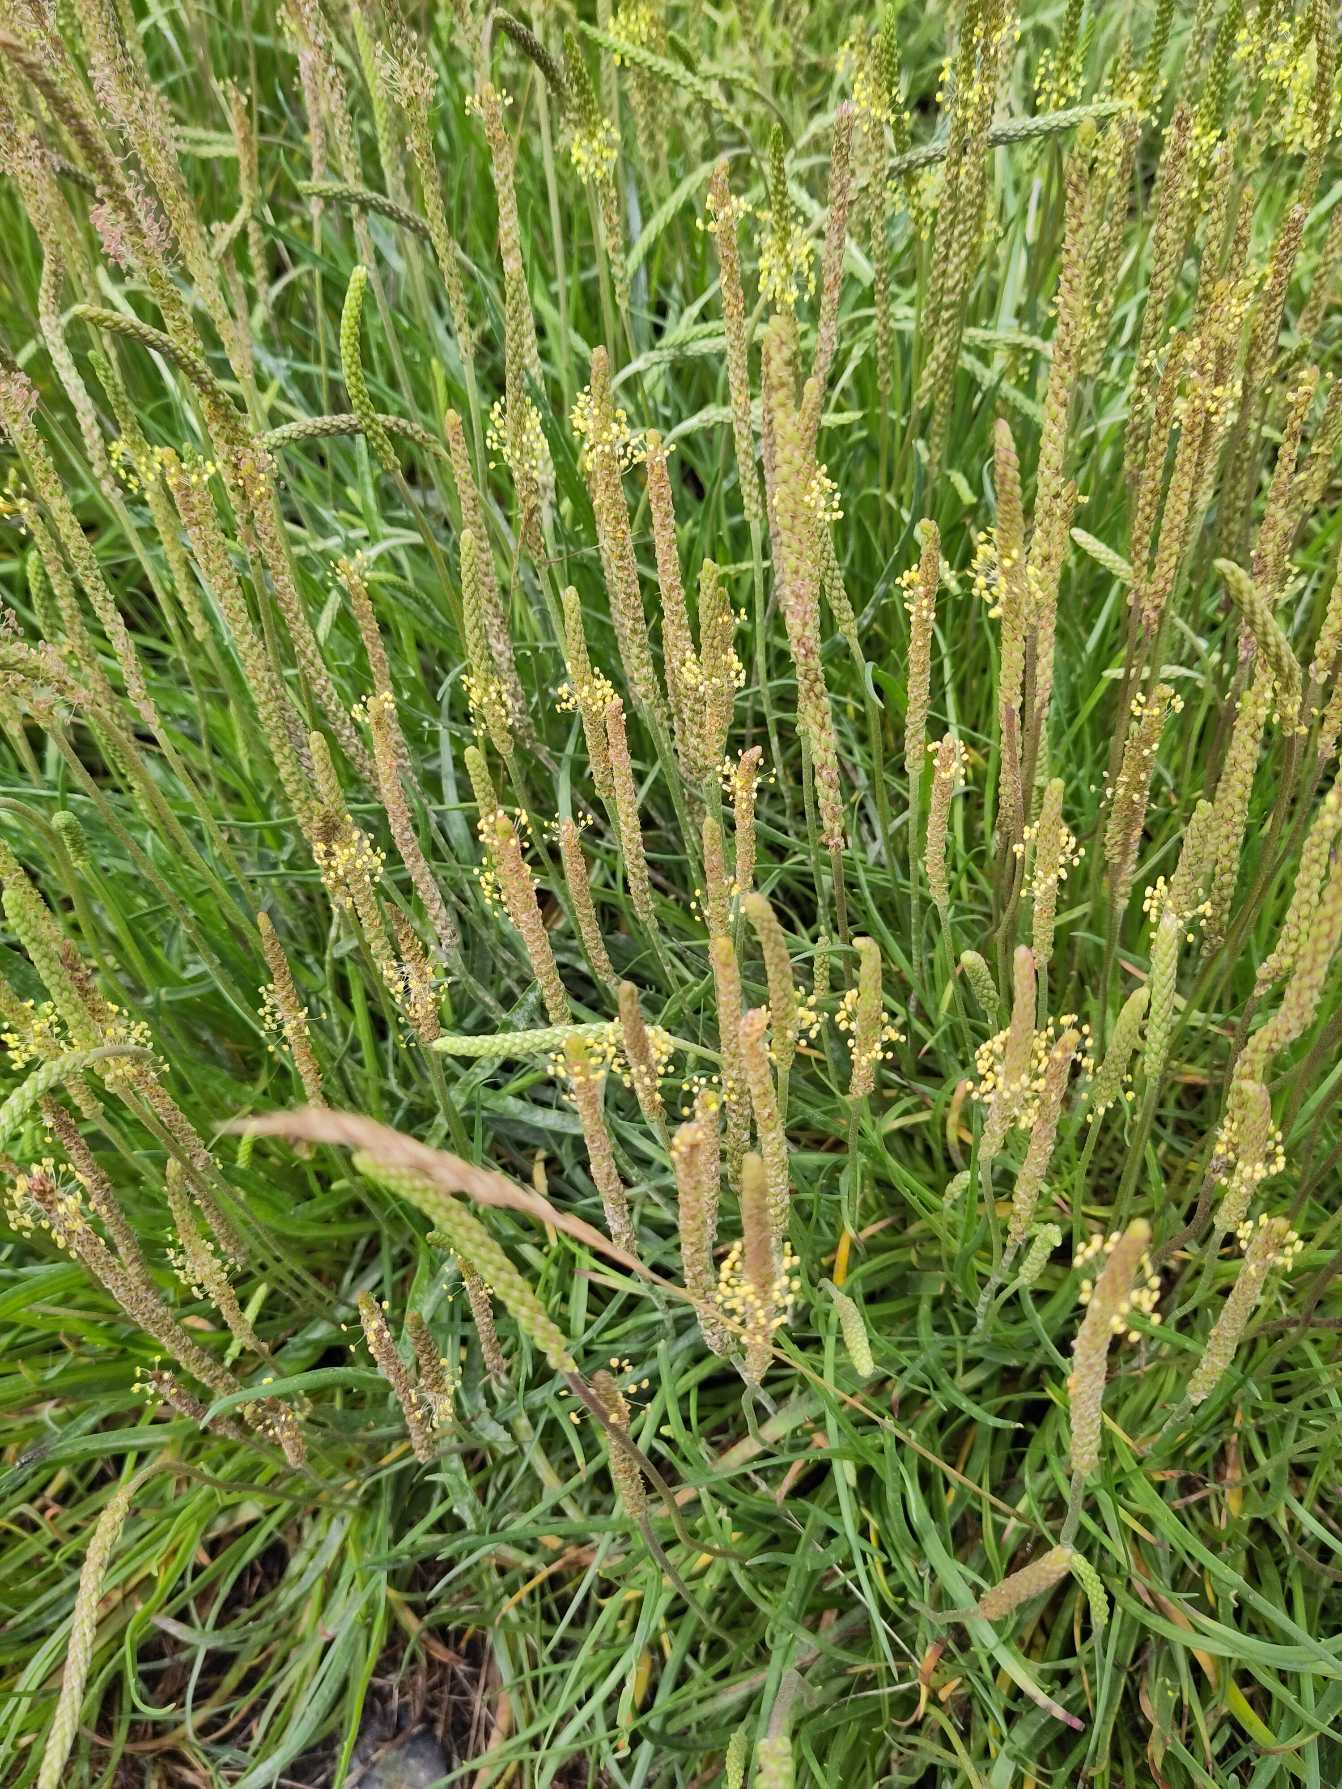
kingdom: Plantae
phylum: Tracheophyta
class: Magnoliopsida
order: Lamiales
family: Plantaginaceae
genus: Plantago
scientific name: Plantago maritima
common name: Strand-vejbred
